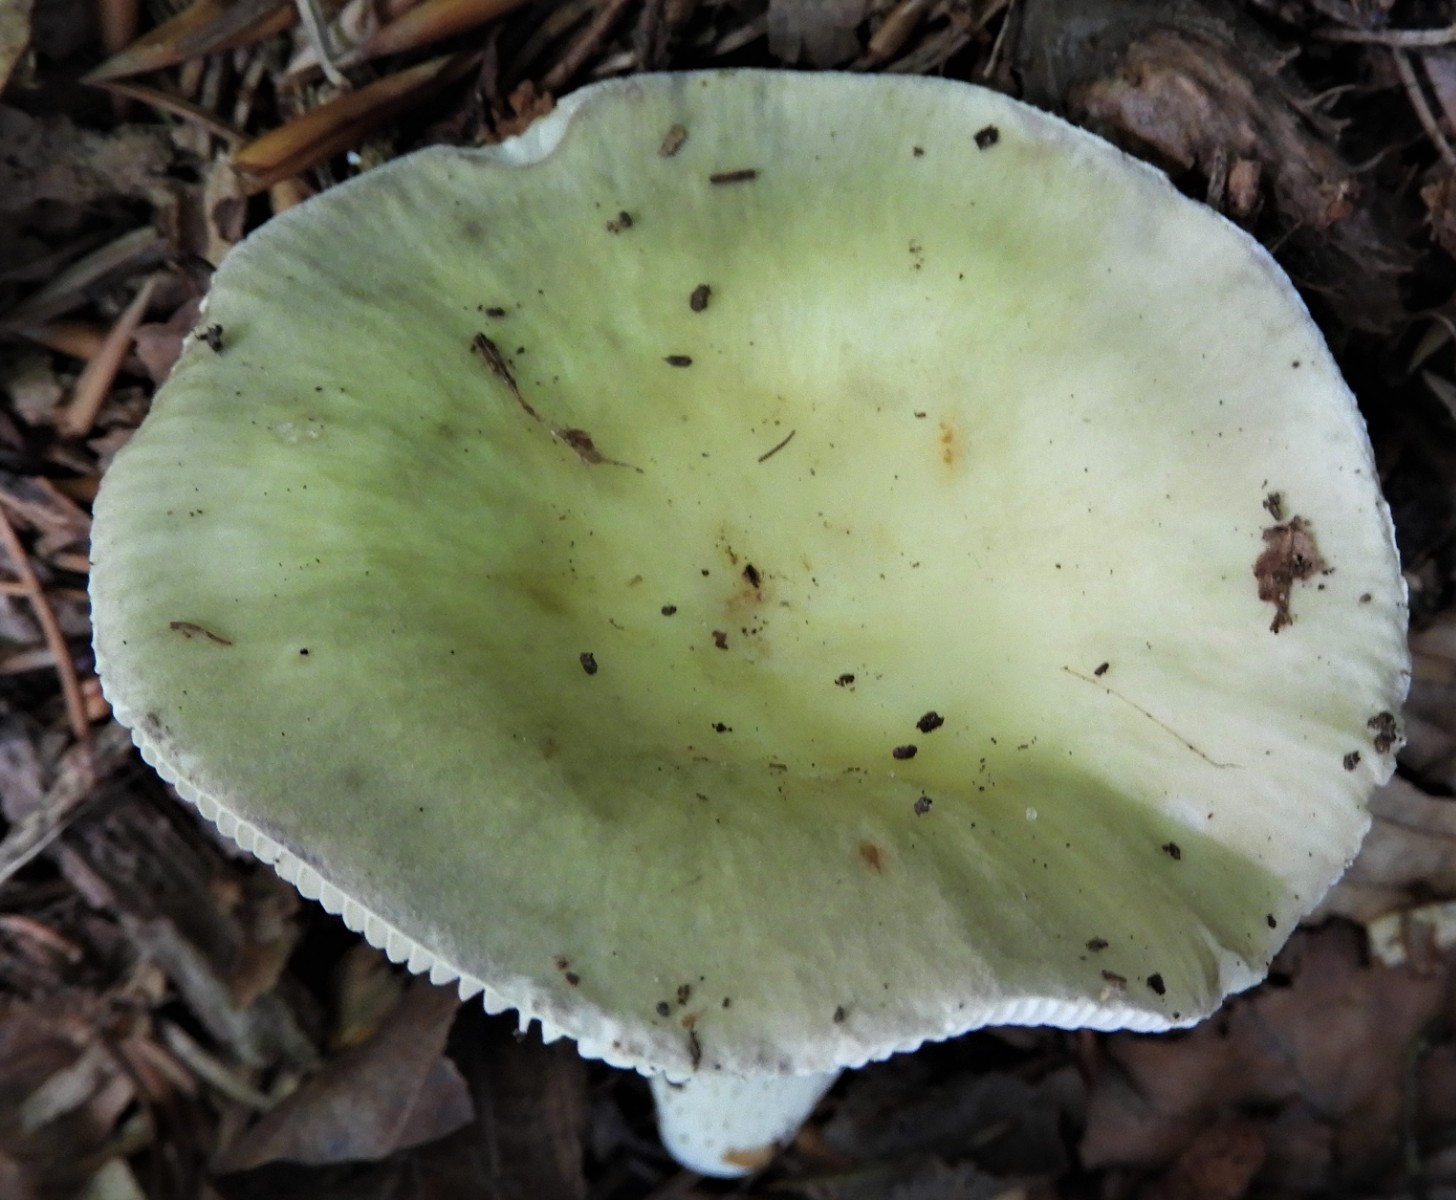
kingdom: Fungi
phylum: Basidiomycota
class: Agaricomycetes
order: Russulales
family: Russulaceae
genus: Russula
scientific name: Russula violeipes
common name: ferskengul skørhat
